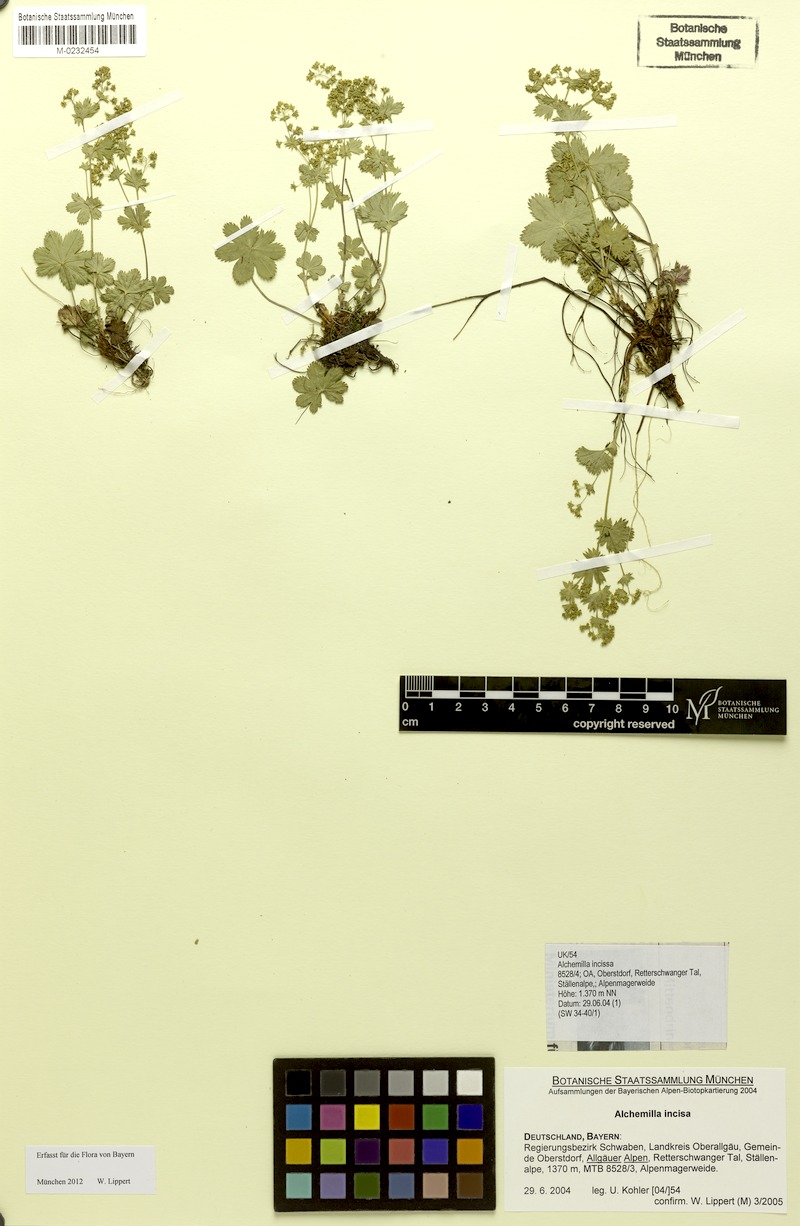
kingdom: Plantae
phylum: Tracheophyta
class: Magnoliopsida
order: Rosales
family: Rosaceae
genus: Alchemilla
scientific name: Alchemilla incisa
